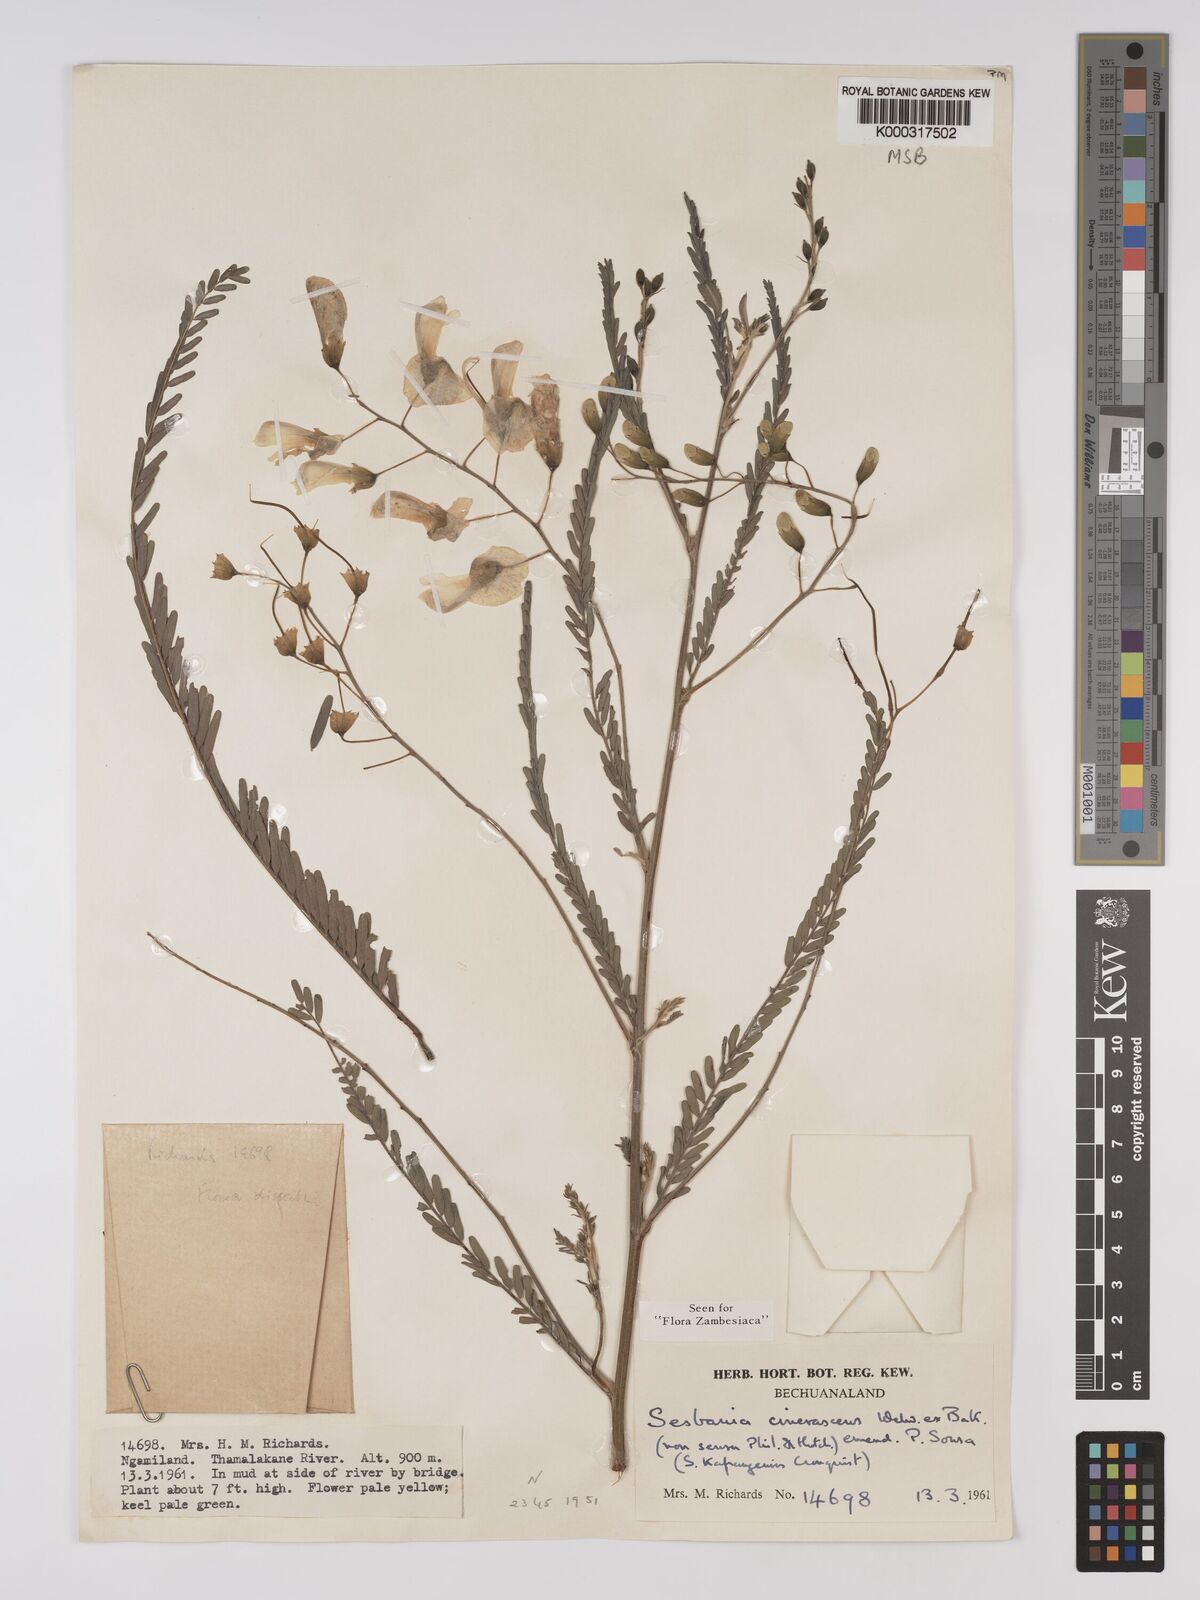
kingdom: Plantae
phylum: Tracheophyta
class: Magnoliopsida
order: Fabales
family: Fabaceae
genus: Sesbania
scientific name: Sesbania cinerascens
